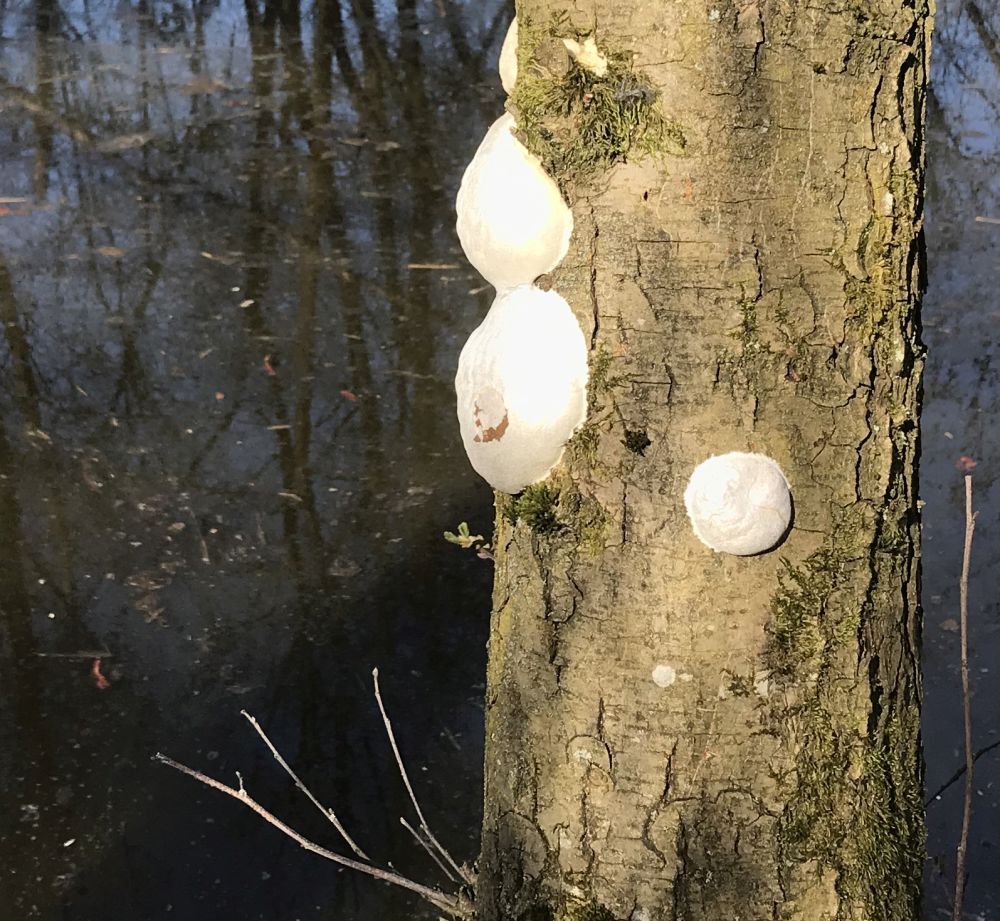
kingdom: Protozoa
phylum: Mycetozoa
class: Myxomycetes
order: Cribrariales
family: Tubiferaceae
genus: Reticularia
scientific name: Reticularia lycoperdon
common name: skinnende støvpude
